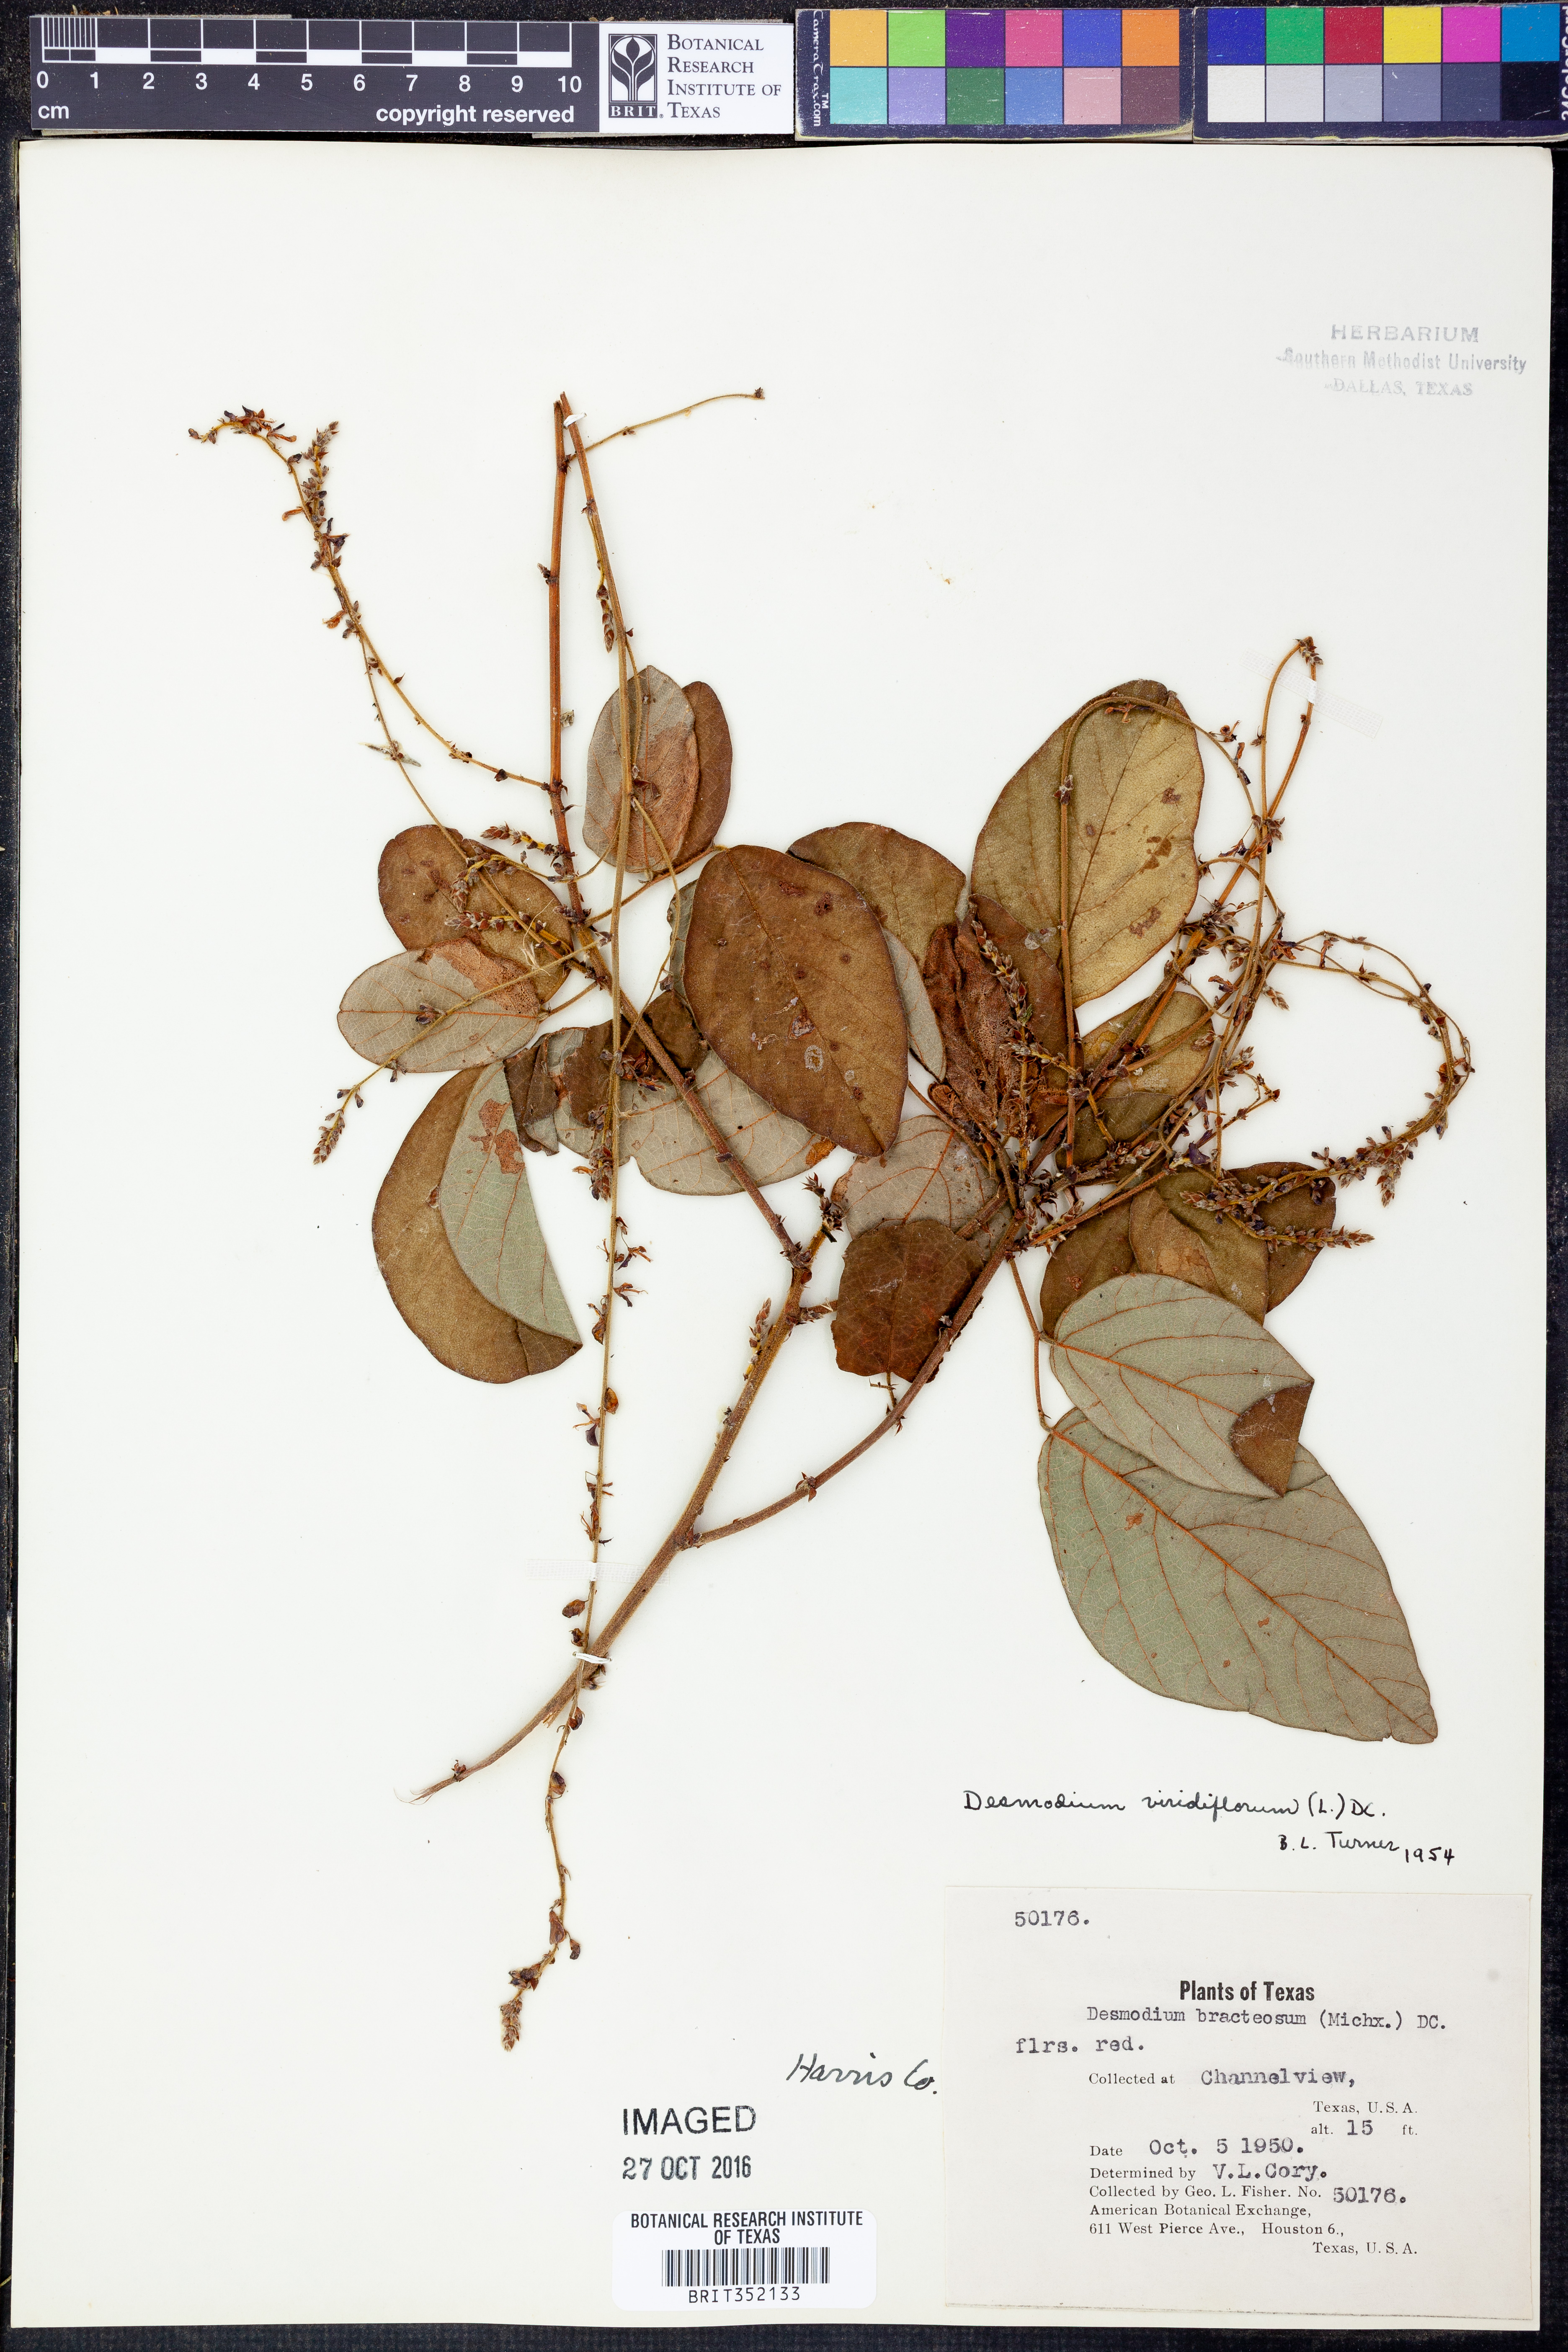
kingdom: Plantae
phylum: Tracheophyta
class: Magnoliopsida
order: Fabales
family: Fabaceae
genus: Desmodium
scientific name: Desmodium viridiflorum
